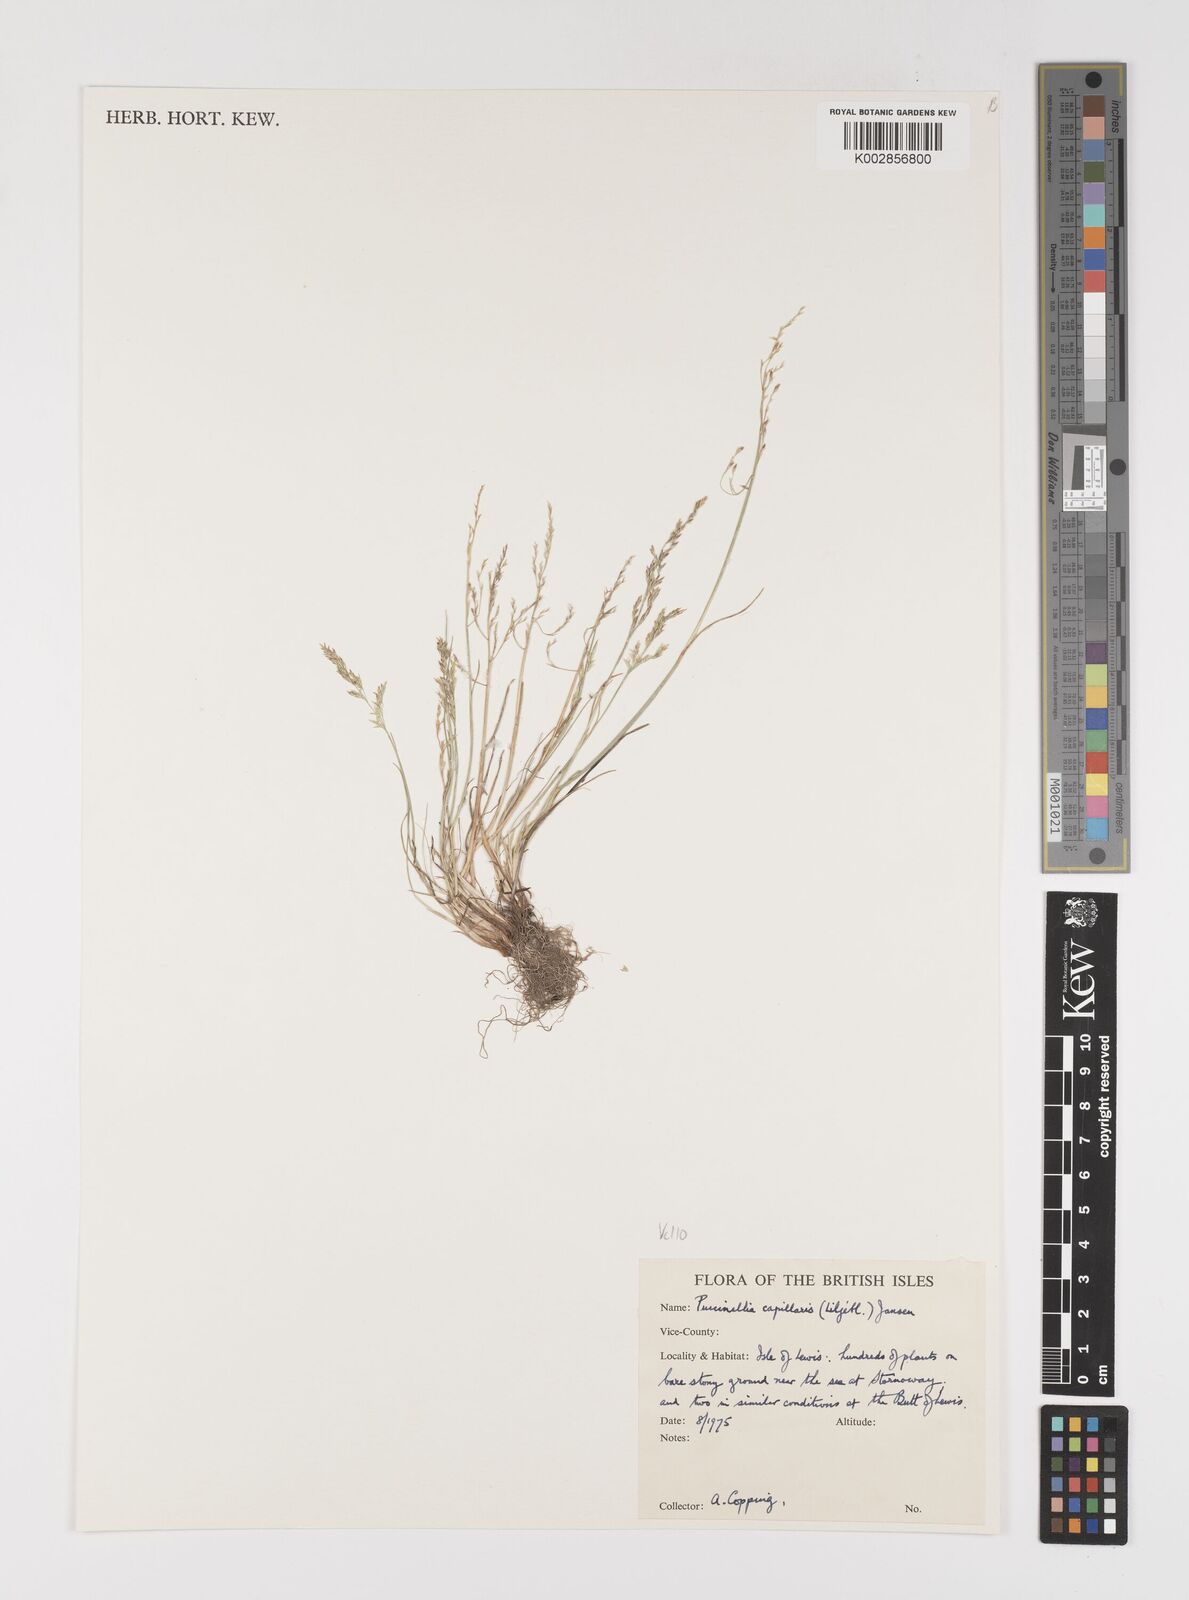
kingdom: Plantae
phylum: Tracheophyta
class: Liliopsida
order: Poales
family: Poaceae
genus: Puccinellia
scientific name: Puccinellia distans
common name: Weeping alkaligrass
